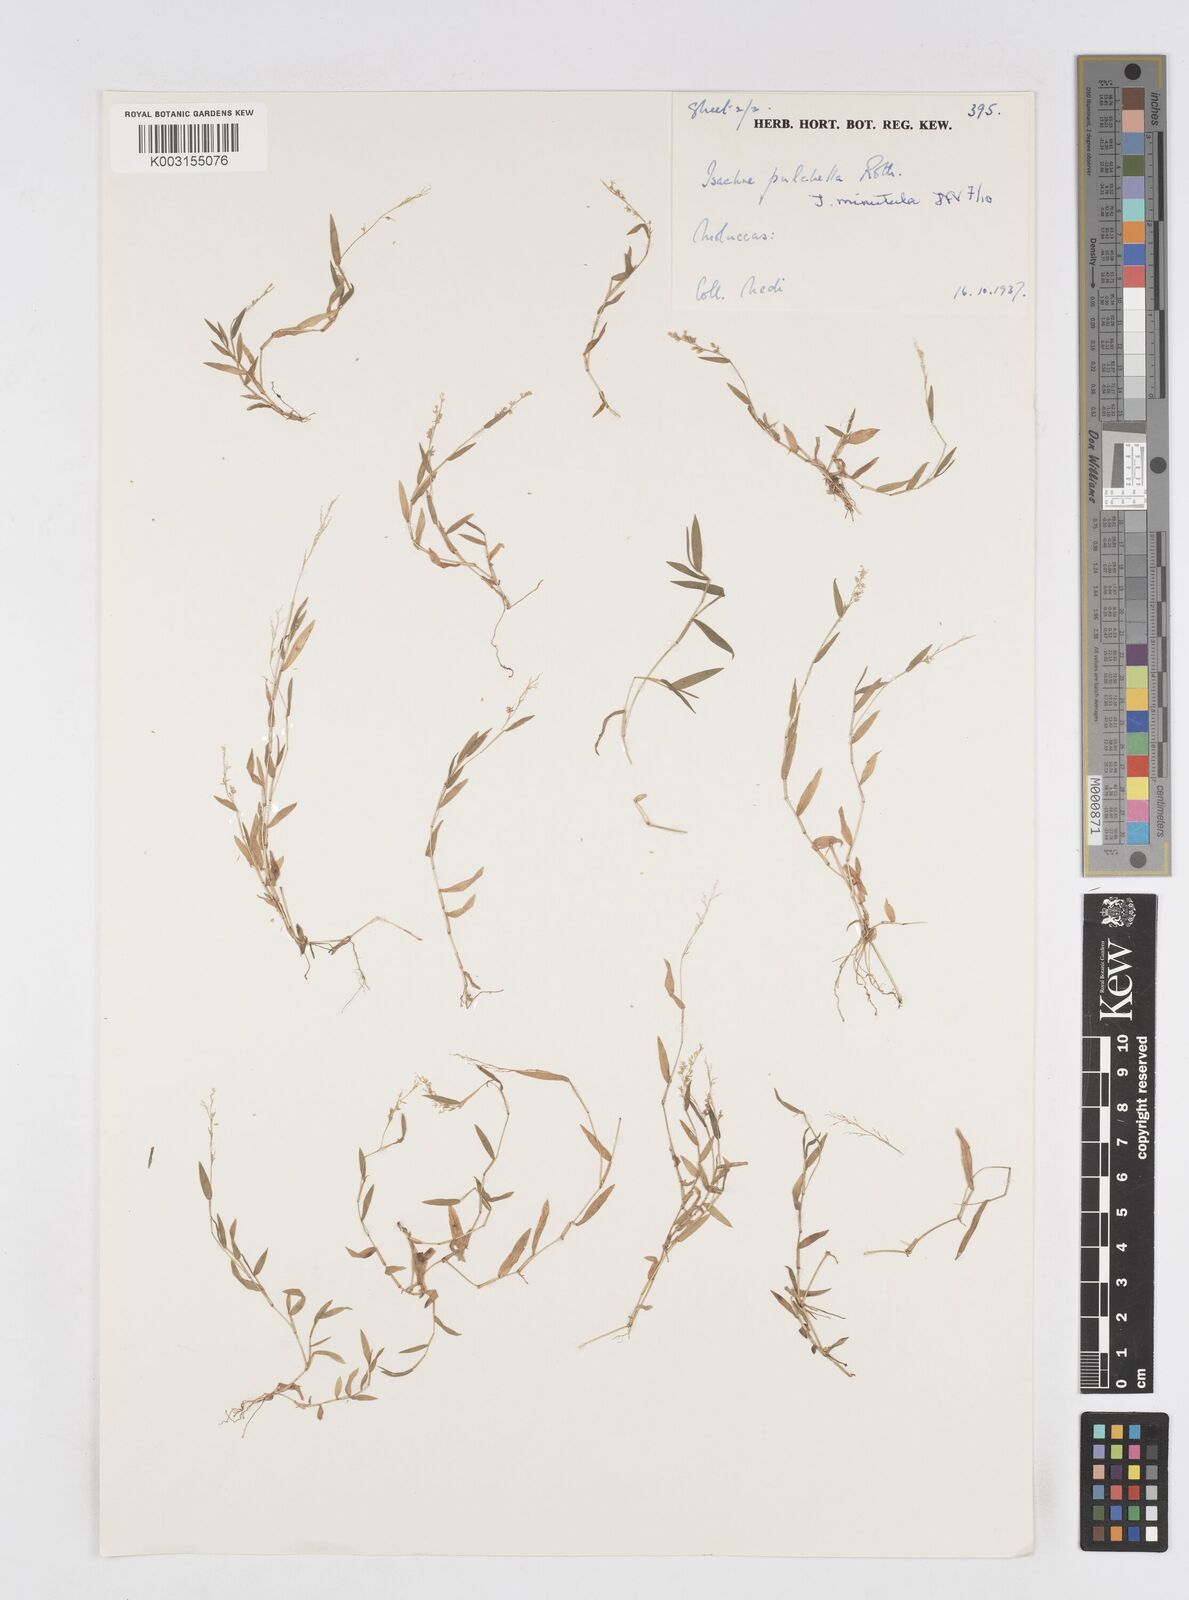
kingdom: Plantae
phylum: Tracheophyta
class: Liliopsida
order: Poales
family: Poaceae
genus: Isachne
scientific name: Isachne pulchella
